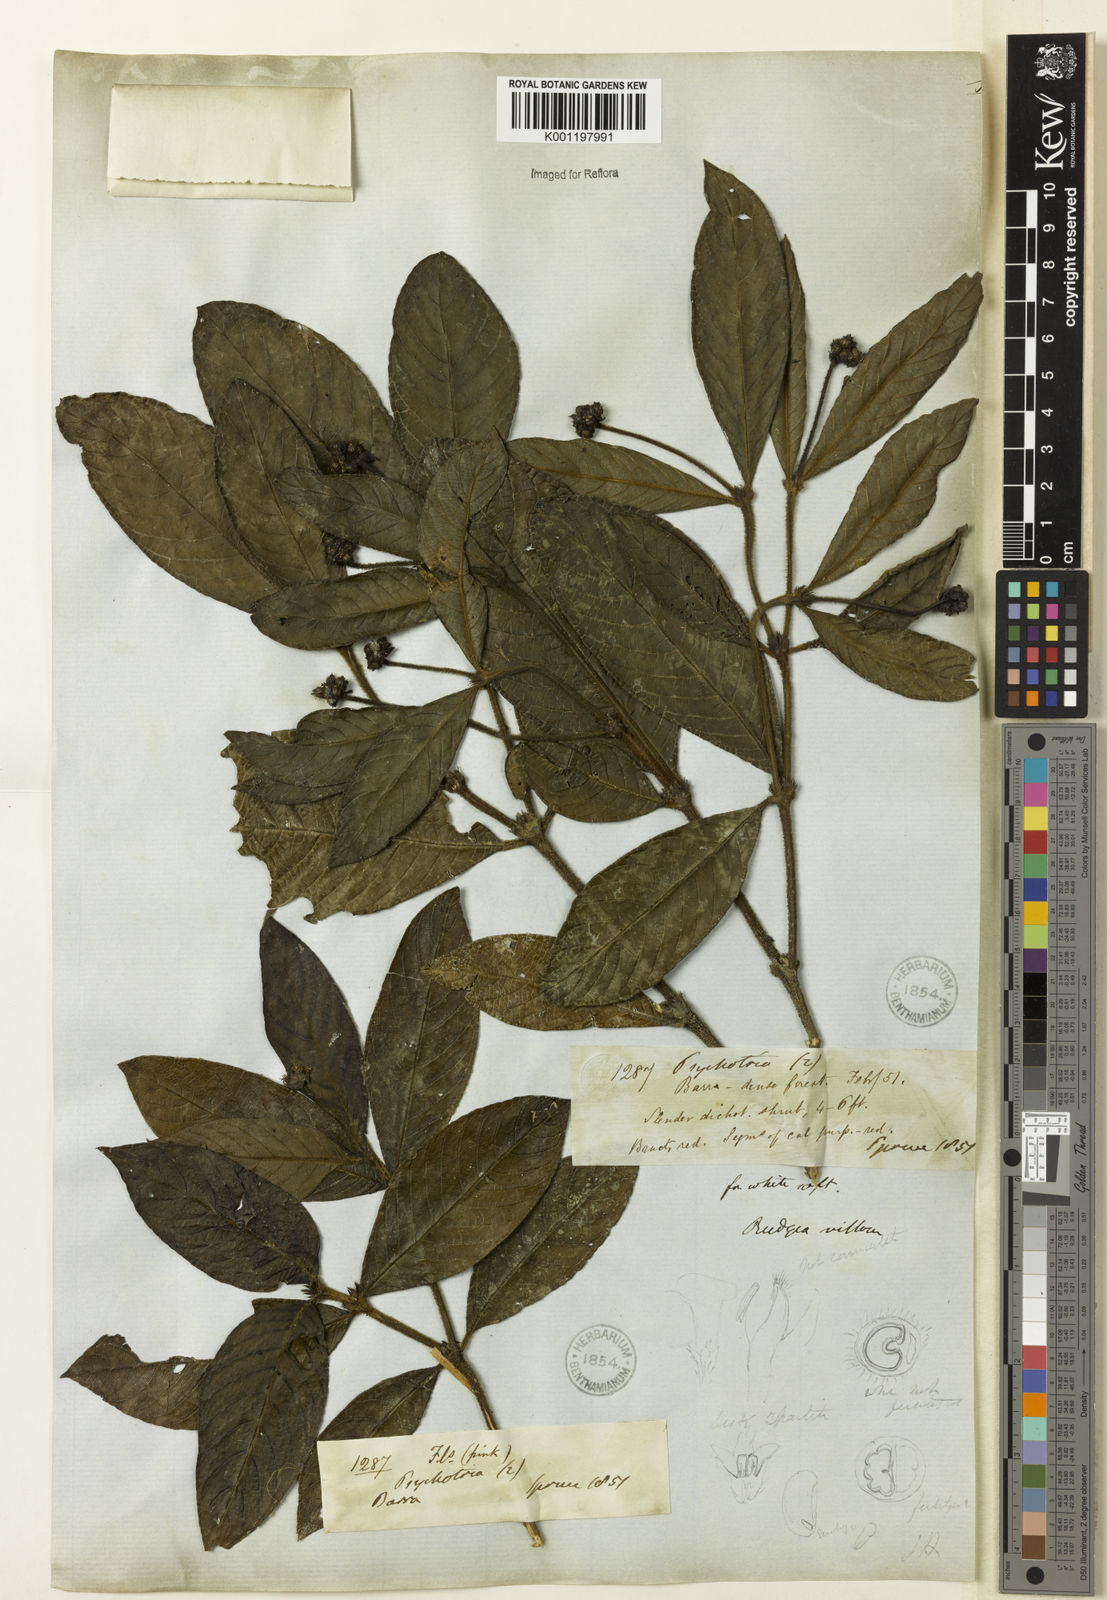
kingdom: Plantae
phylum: Tracheophyta
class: Magnoliopsida
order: Gentianales
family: Rubiaceae
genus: Psychotria
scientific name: Psychotria sphaerocarpa
